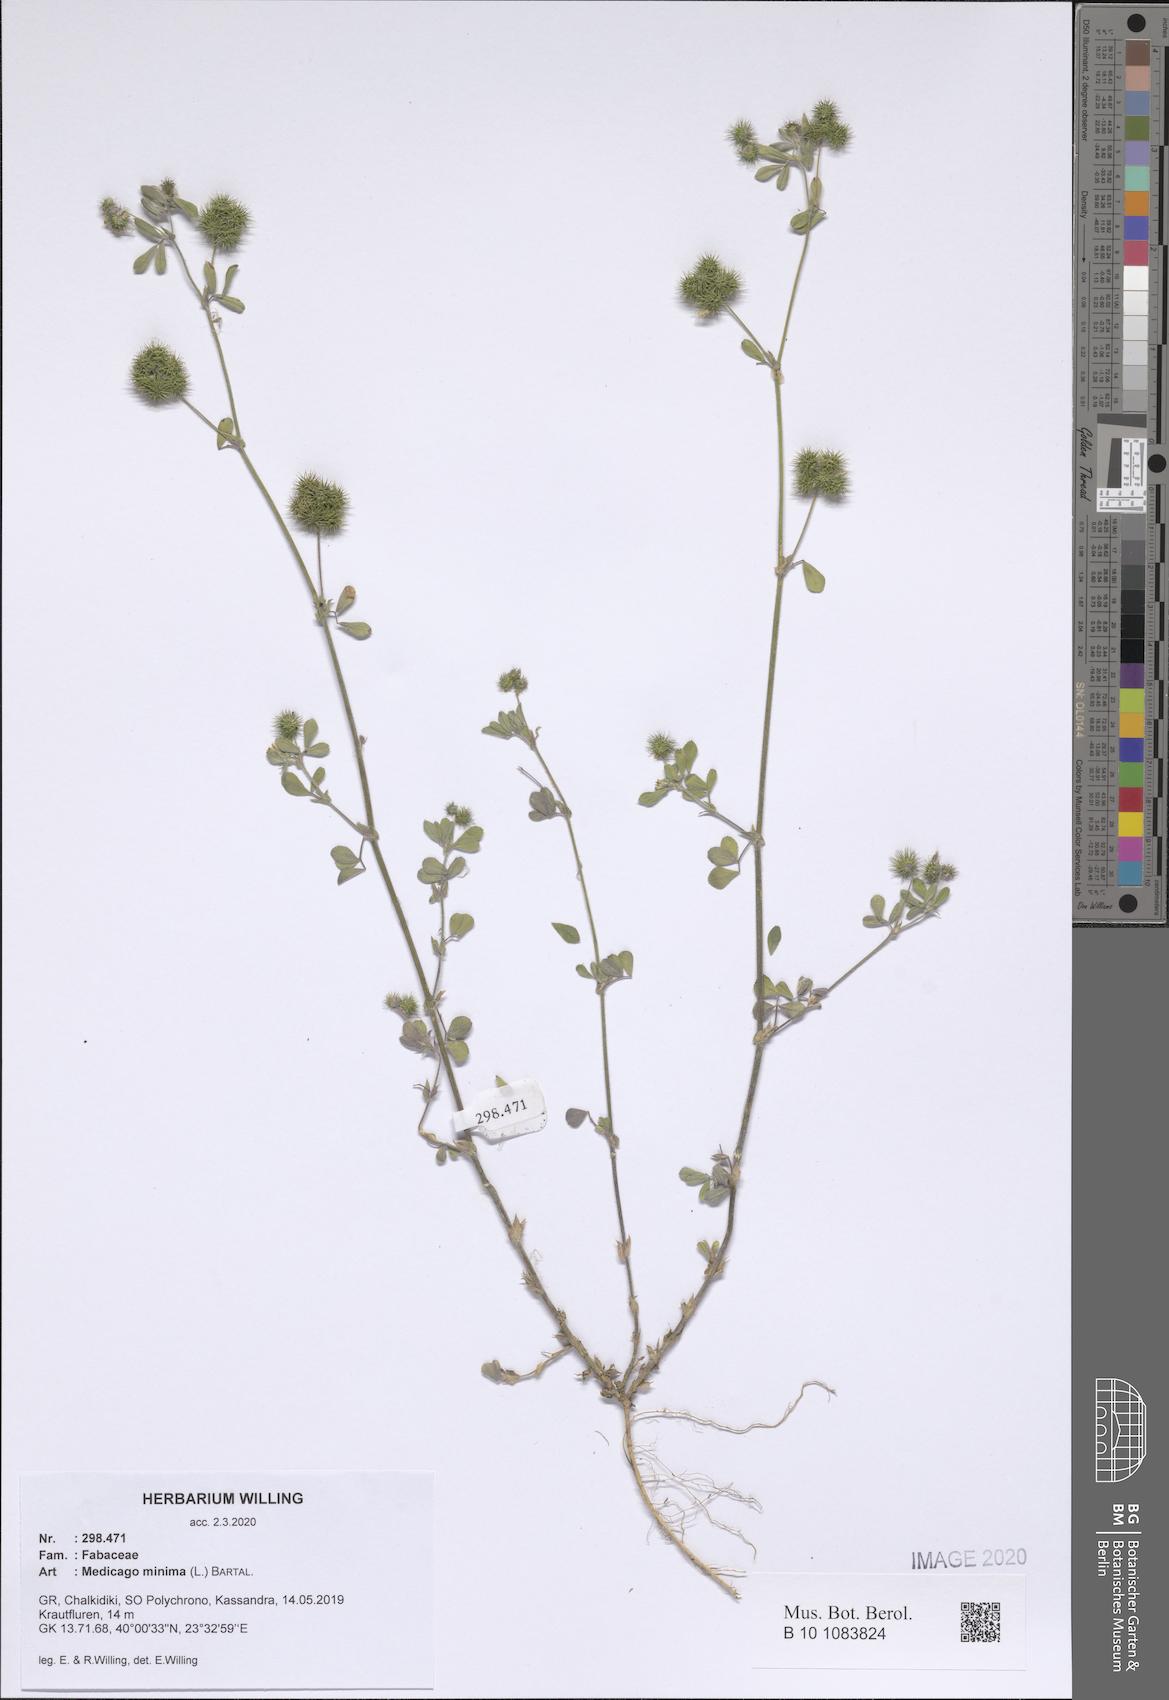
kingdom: Plantae
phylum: Tracheophyta
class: Magnoliopsida
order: Fabales
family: Fabaceae
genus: Medicago
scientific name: Medicago minima
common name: Little bur-clover
